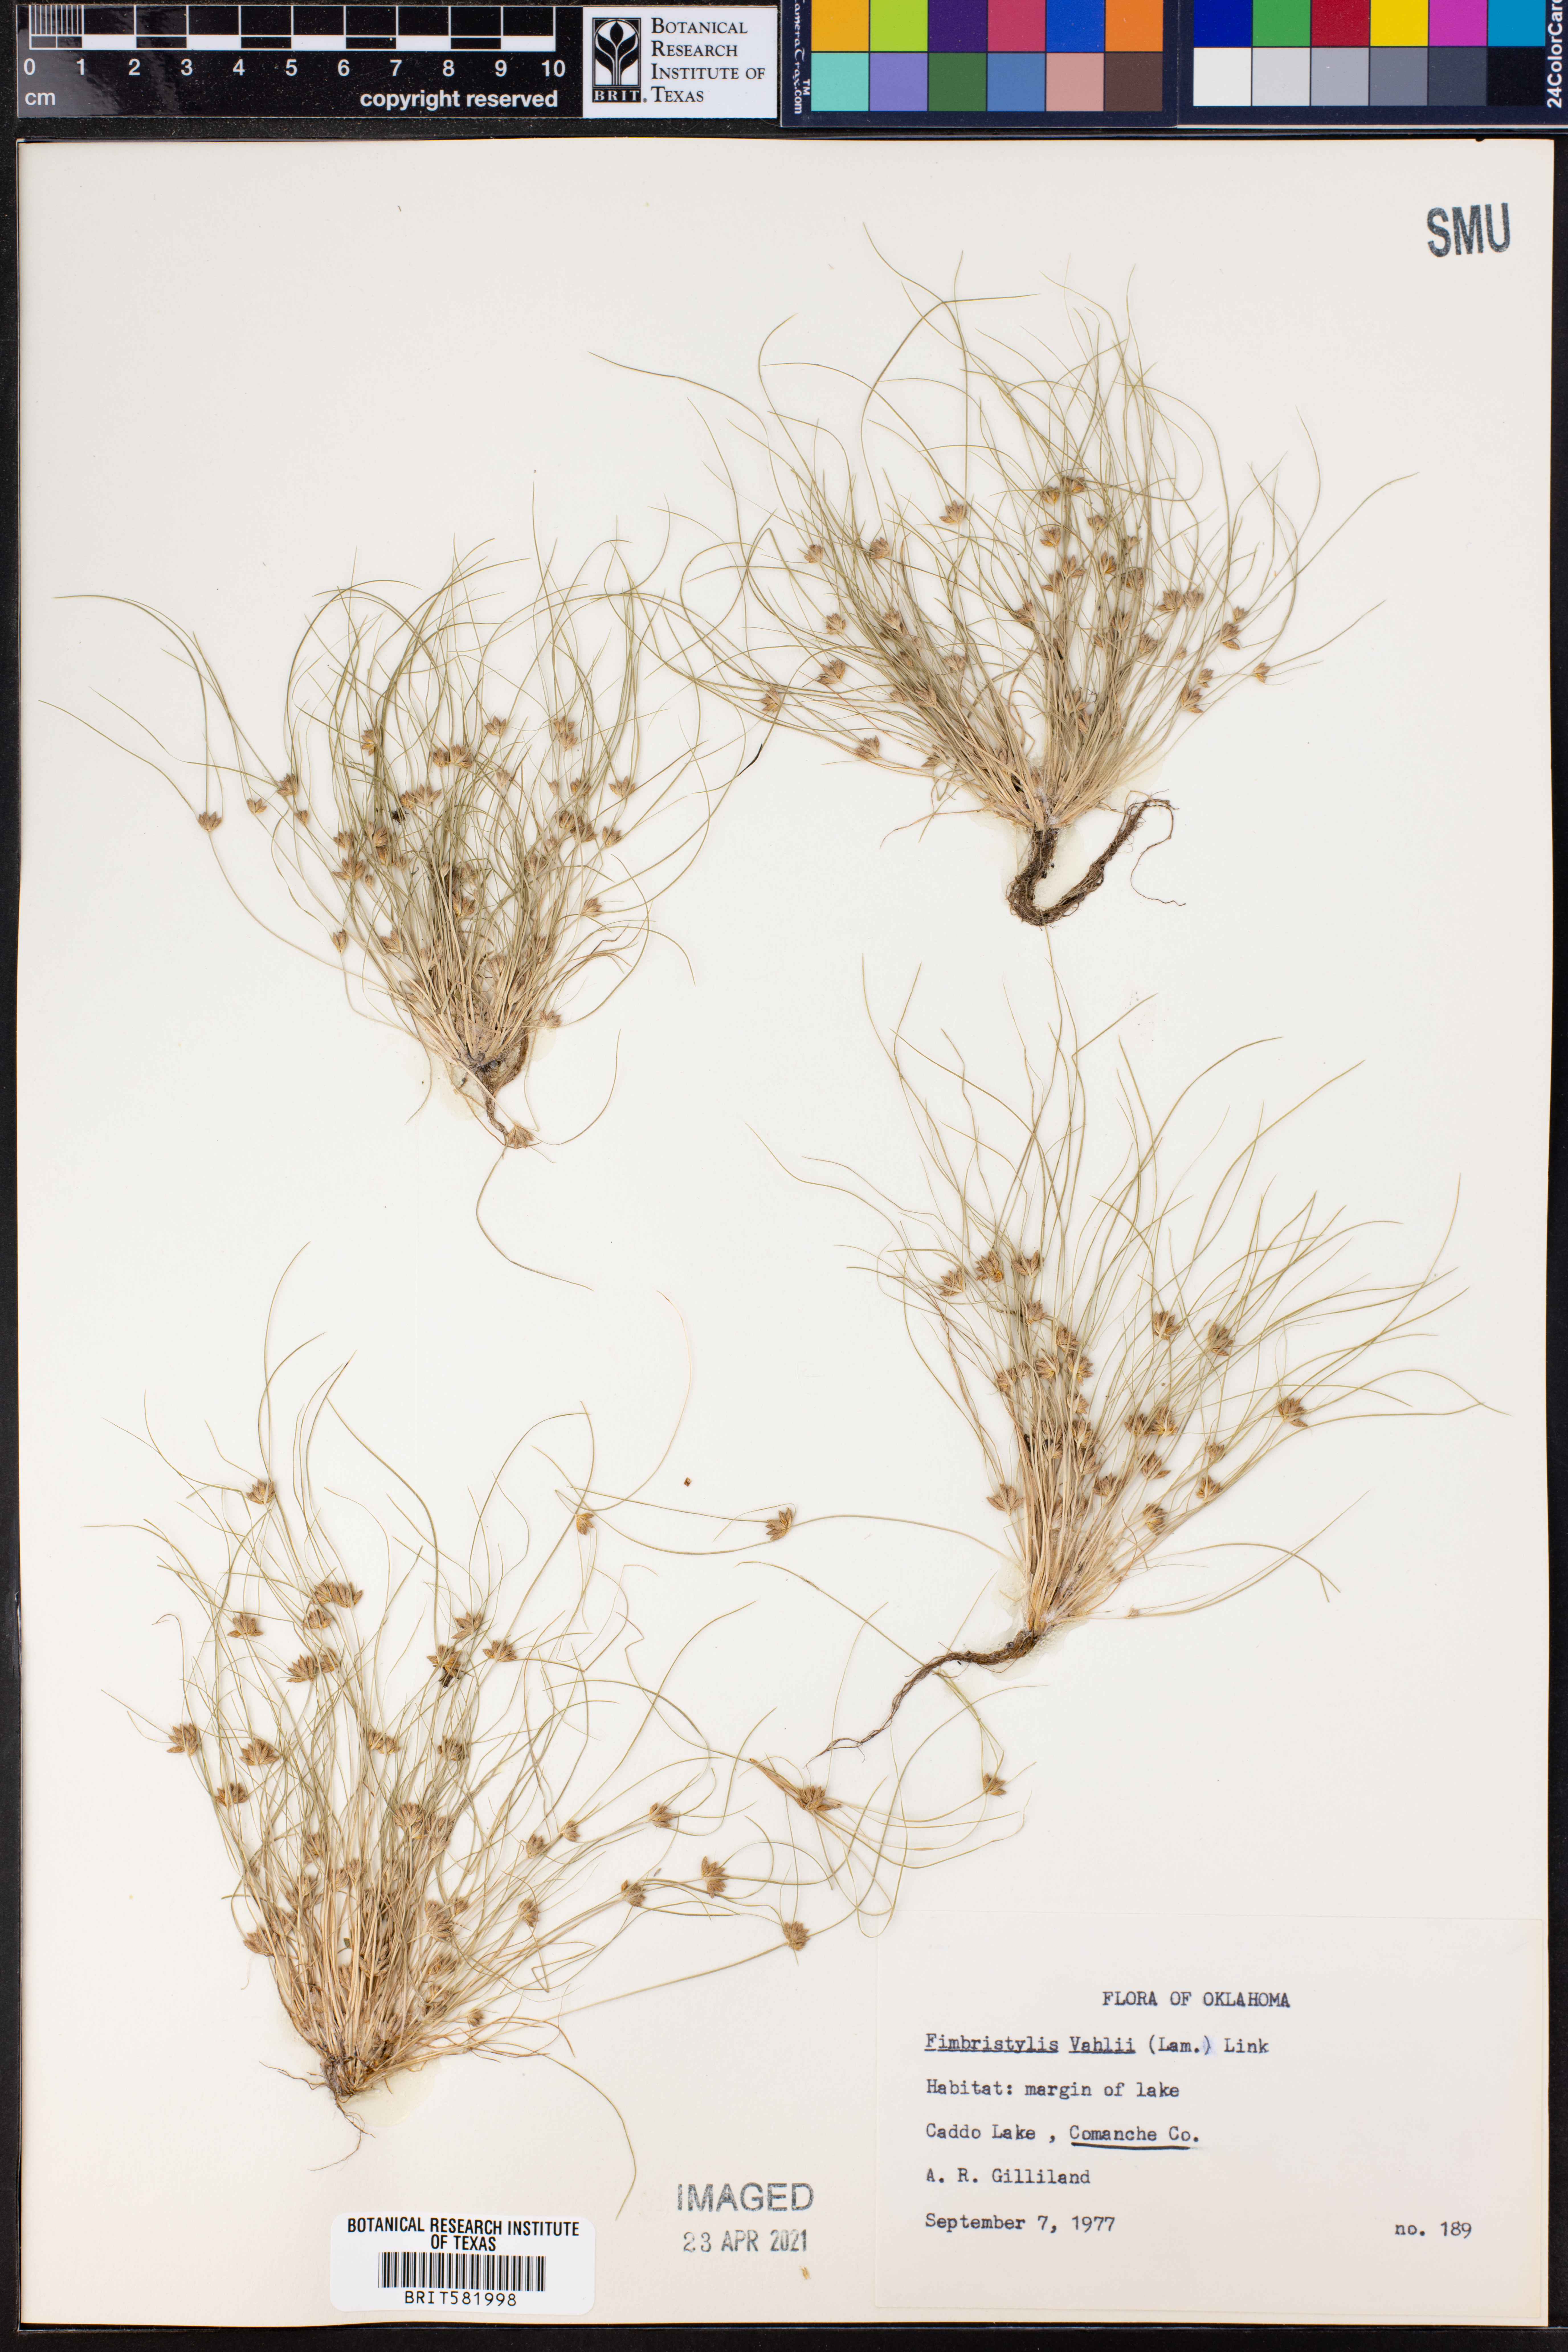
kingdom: Plantae
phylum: Tracheophyta
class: Liliopsida
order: Poales
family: Cyperaceae
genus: Fimbristylis
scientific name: Fimbristylis vahlii
